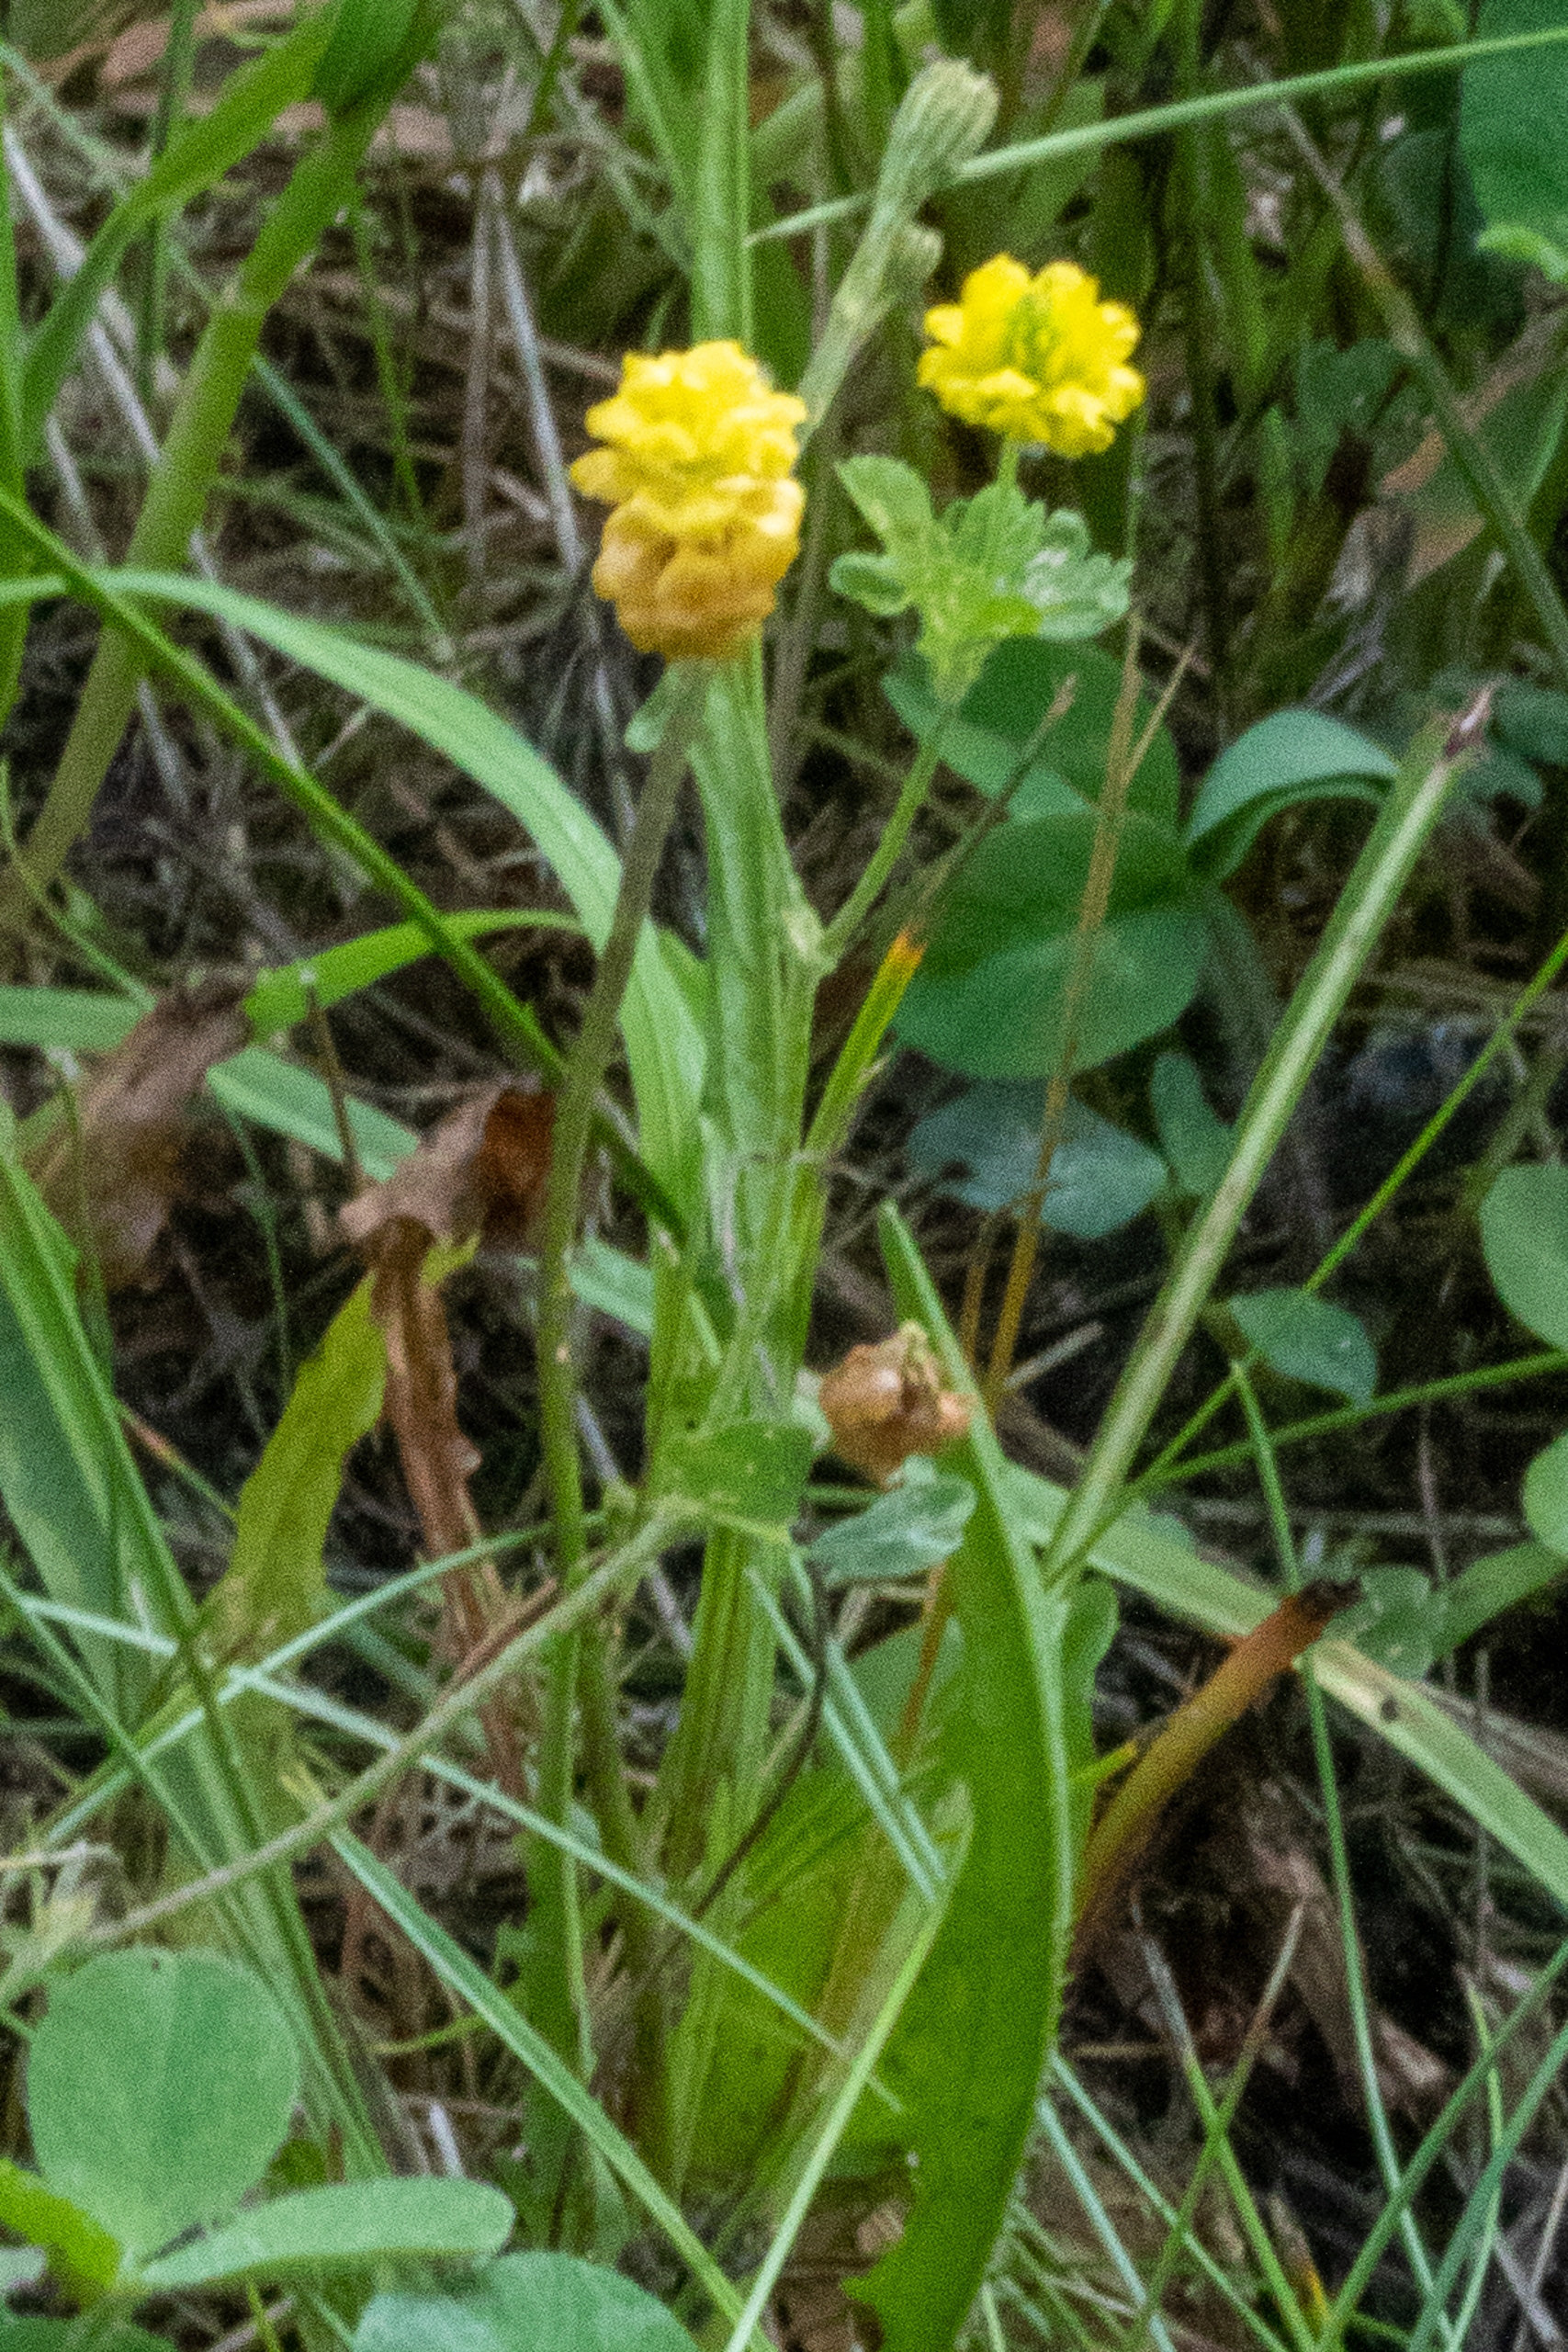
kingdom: Plantae
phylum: Tracheophyta
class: Magnoliopsida
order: Fabales
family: Fabaceae
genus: Trifolium
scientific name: Trifolium campestre
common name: Gul kløver
